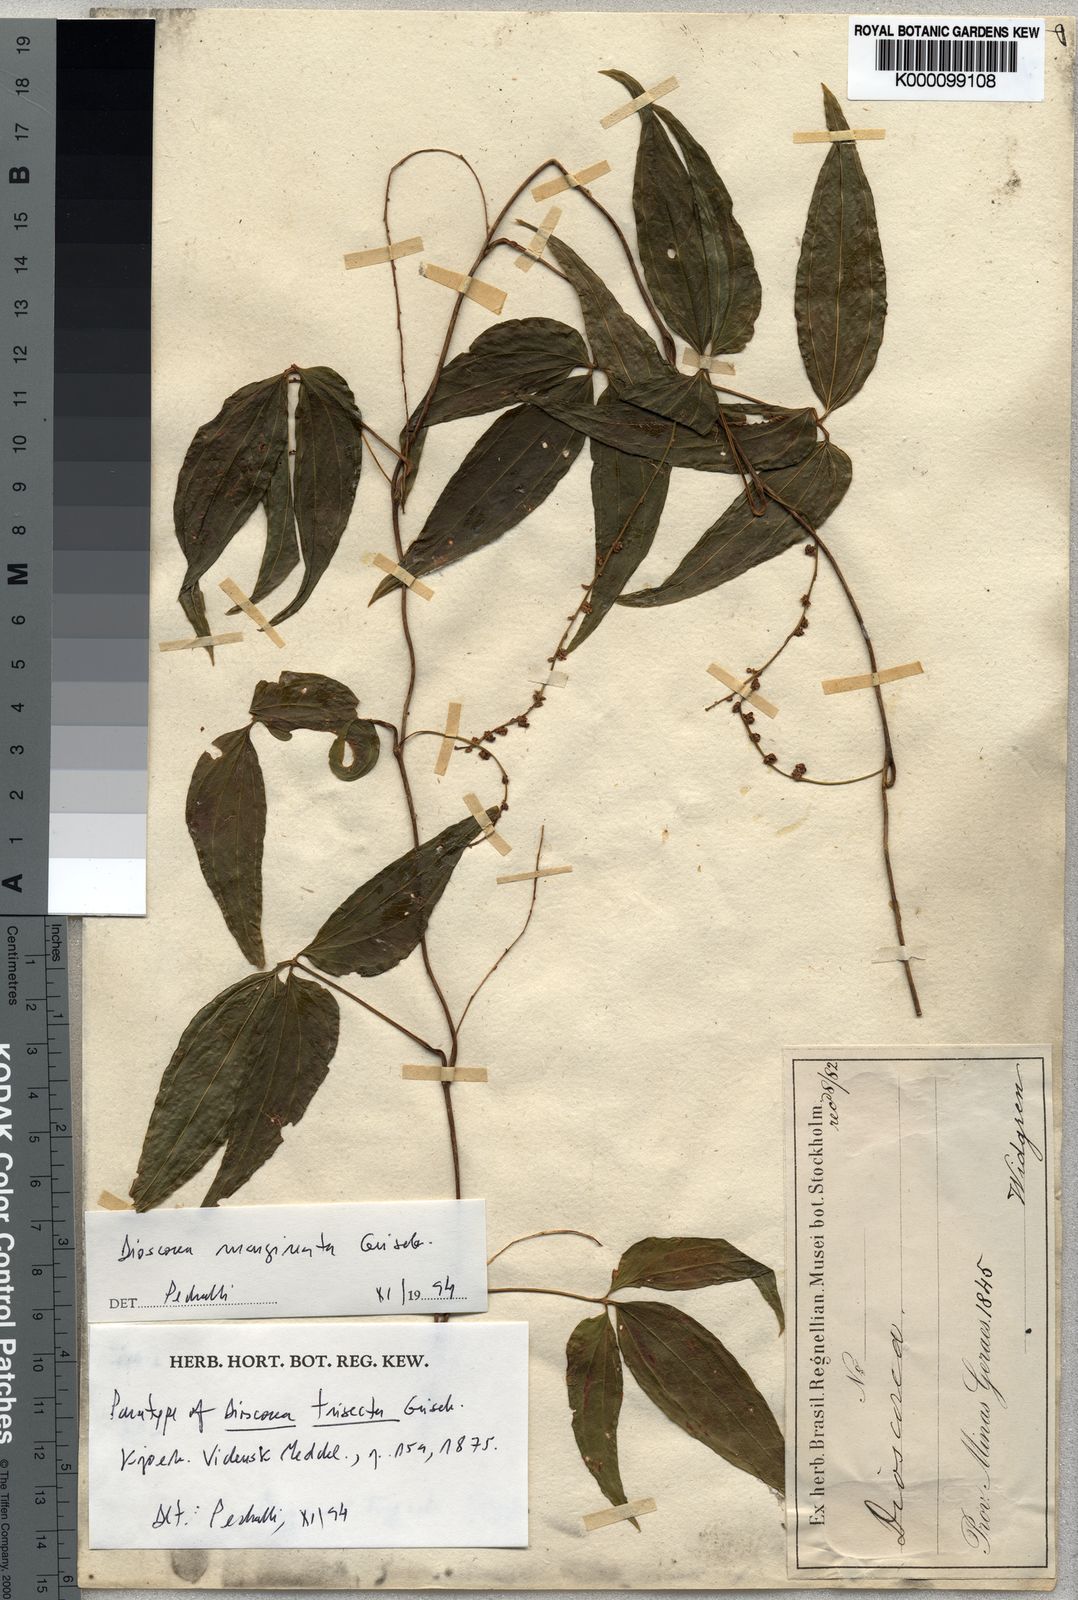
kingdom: Plantae
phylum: Tracheophyta
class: Liliopsida
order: Dioscoreales
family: Dioscoreaceae
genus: Dioscorea
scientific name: Dioscorea trisecta
